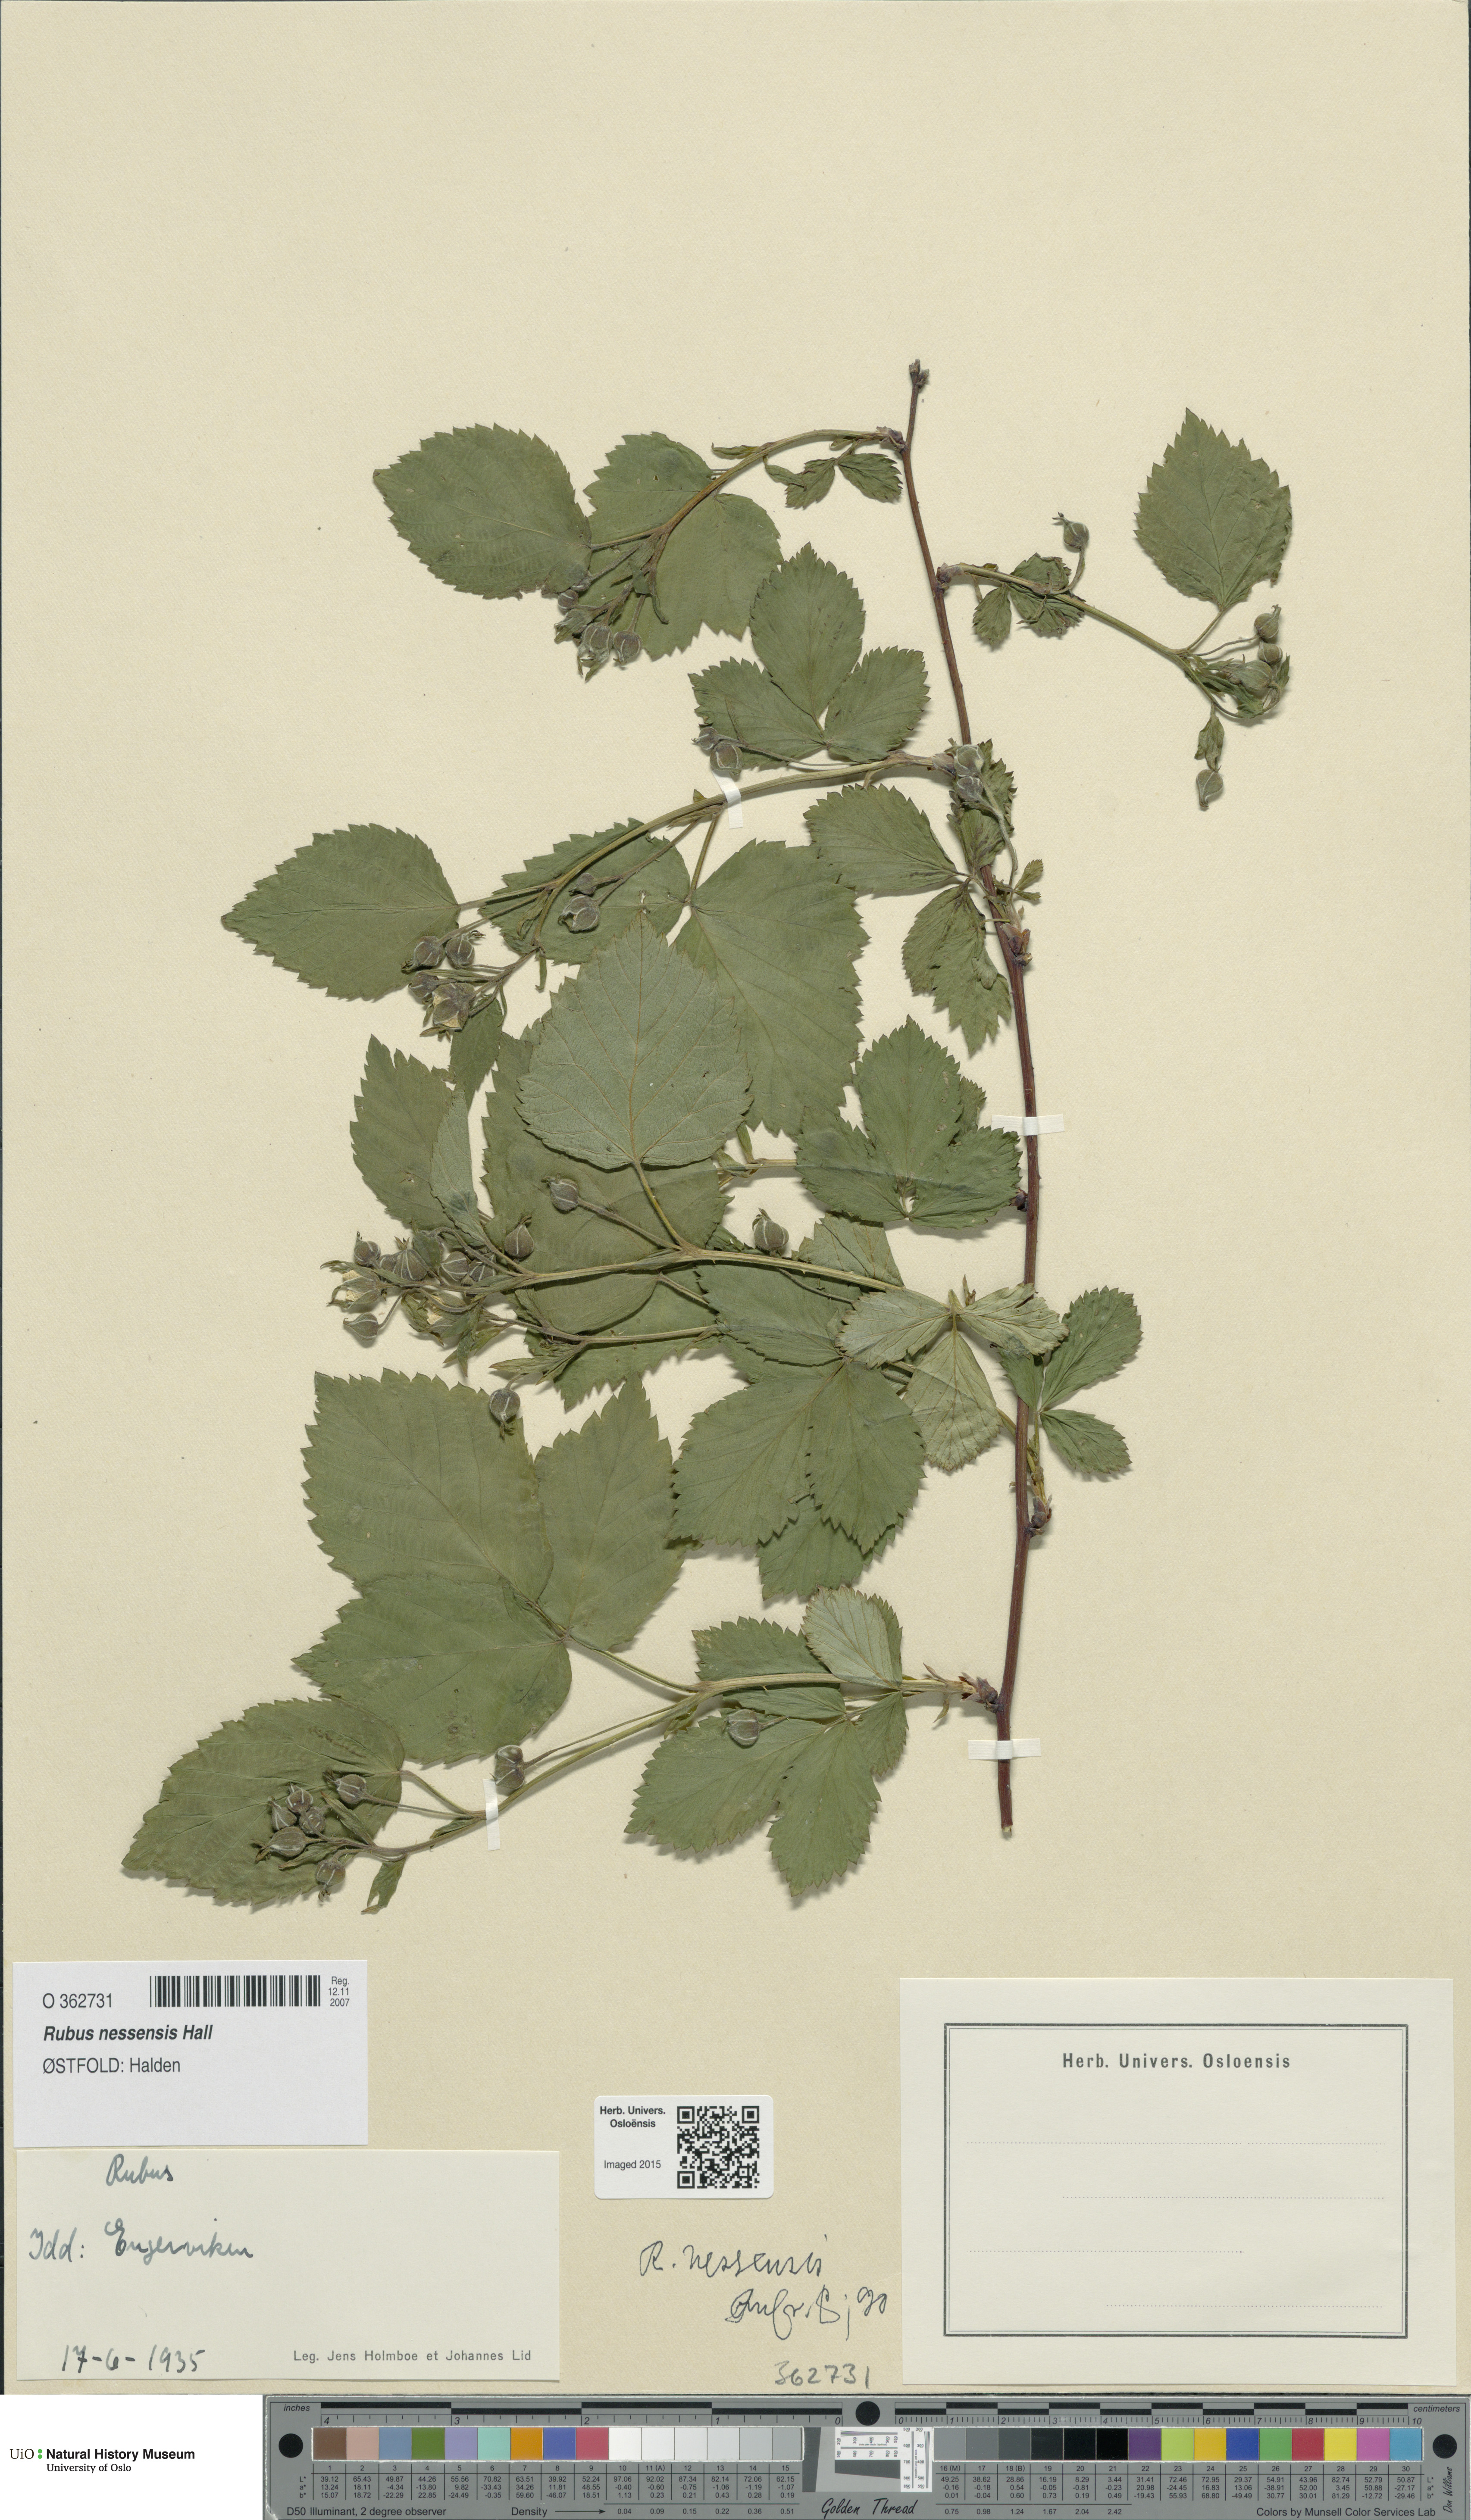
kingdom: Plantae
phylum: Tracheophyta
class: Magnoliopsida
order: Rosales
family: Rosaceae
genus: Rubus
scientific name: Rubus polonicus
